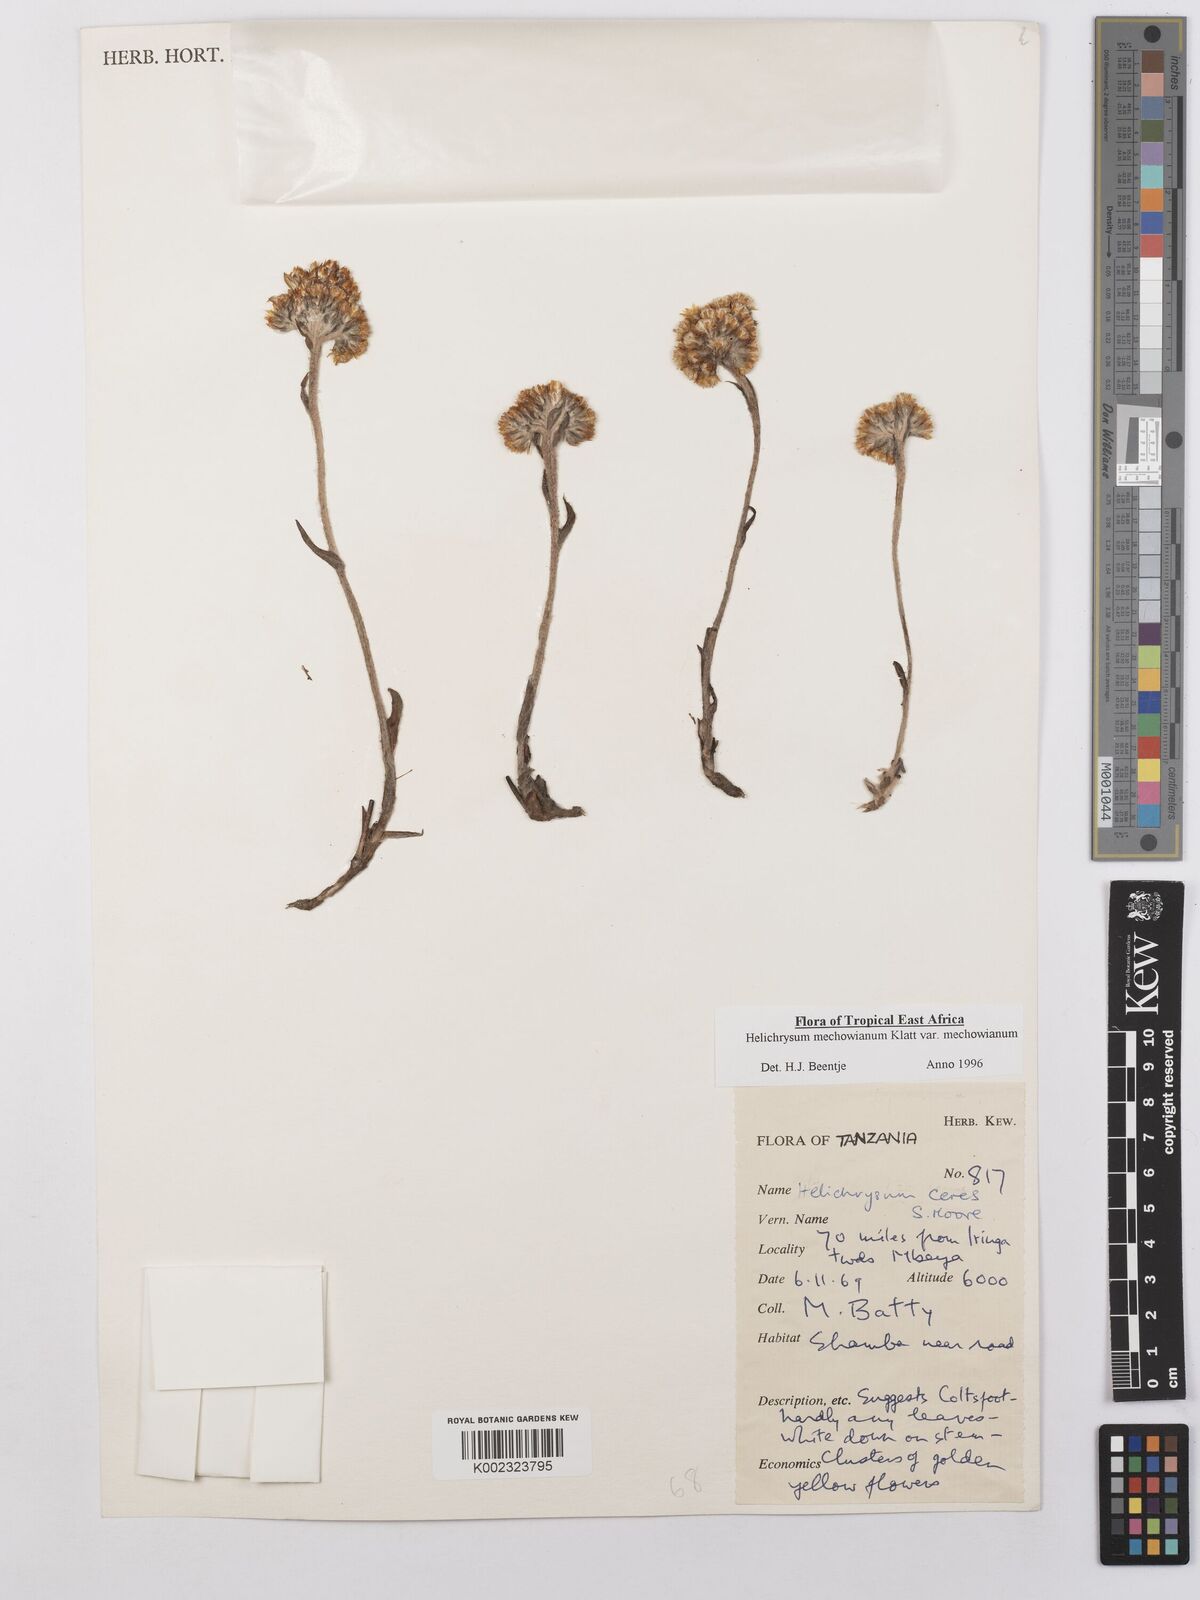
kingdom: Plantae
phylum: Tracheophyta
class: Magnoliopsida
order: Asterales
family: Asteraceae
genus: Helichrysum
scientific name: Helichrysum mechowianum
